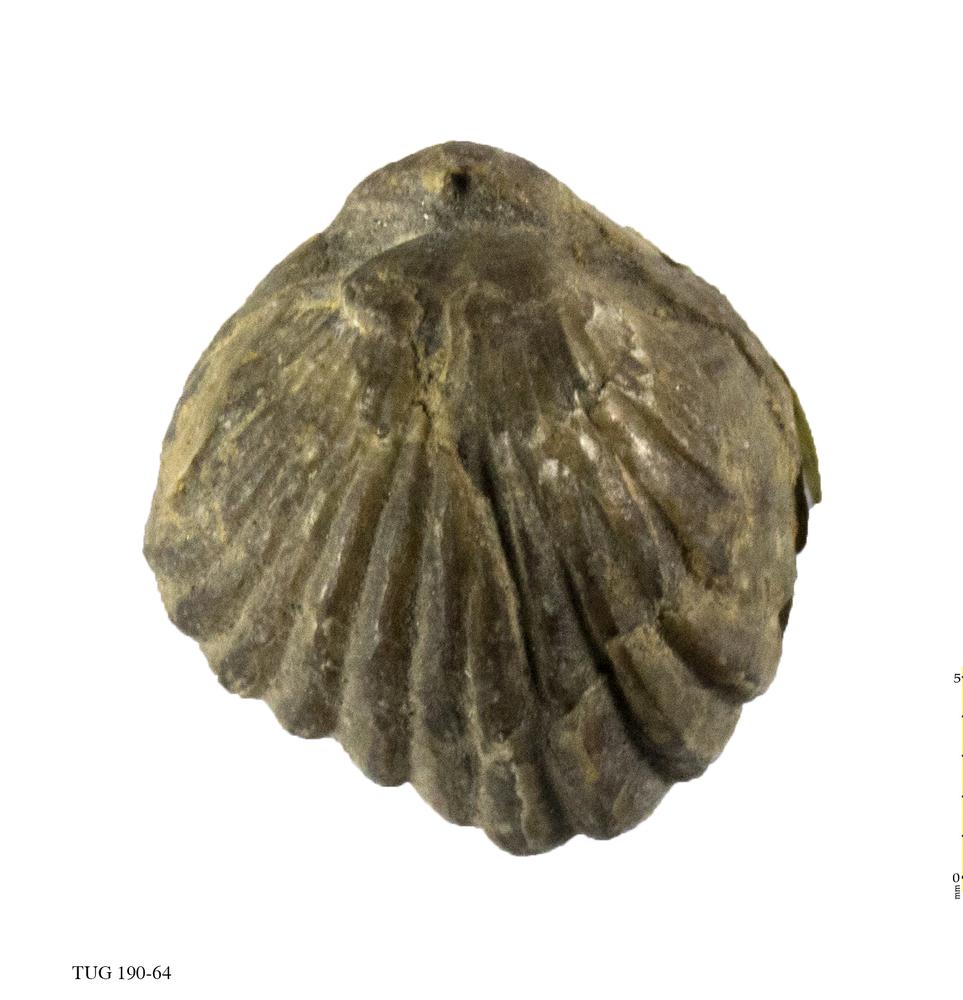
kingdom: Animalia
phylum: Brachiopoda
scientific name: Brachiopoda
